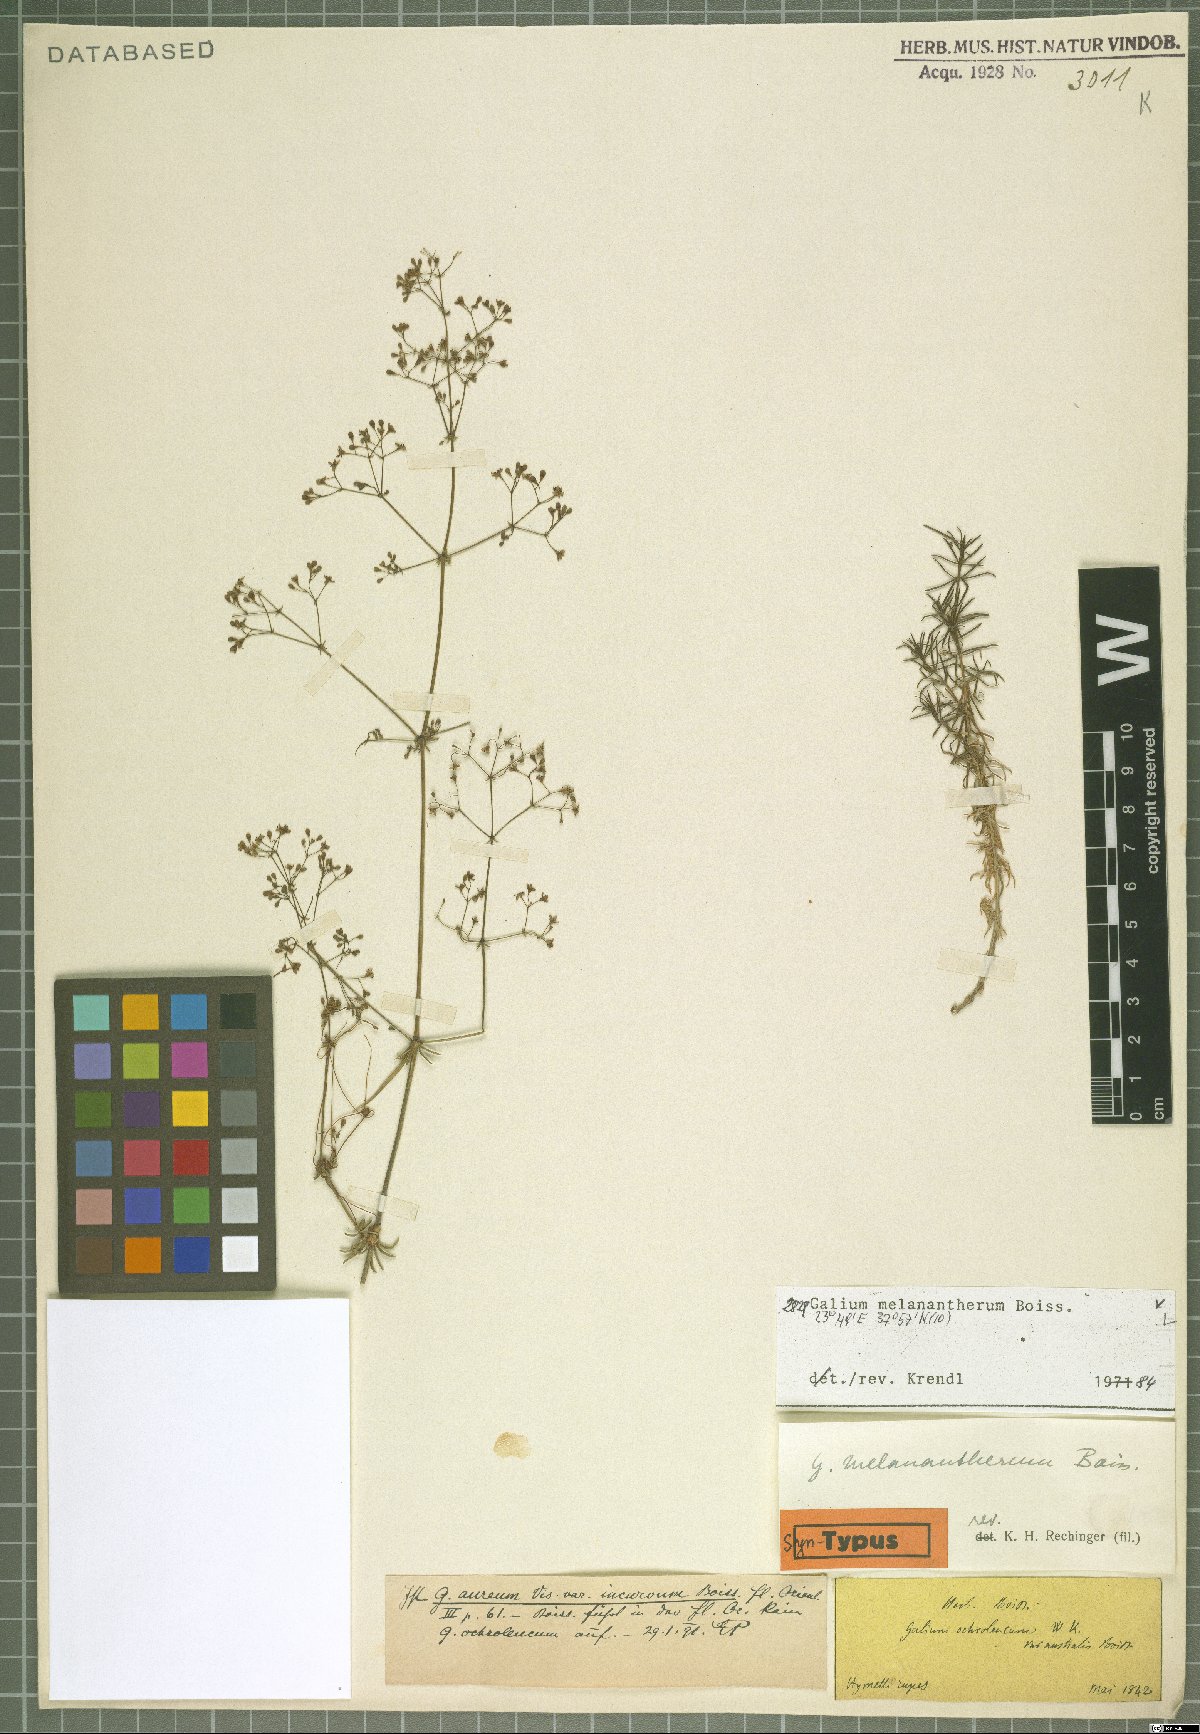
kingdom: Plantae
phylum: Tracheophyta
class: Magnoliopsida
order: Gentianales
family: Rubiaceae
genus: Galium
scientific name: Galium melanantherum
